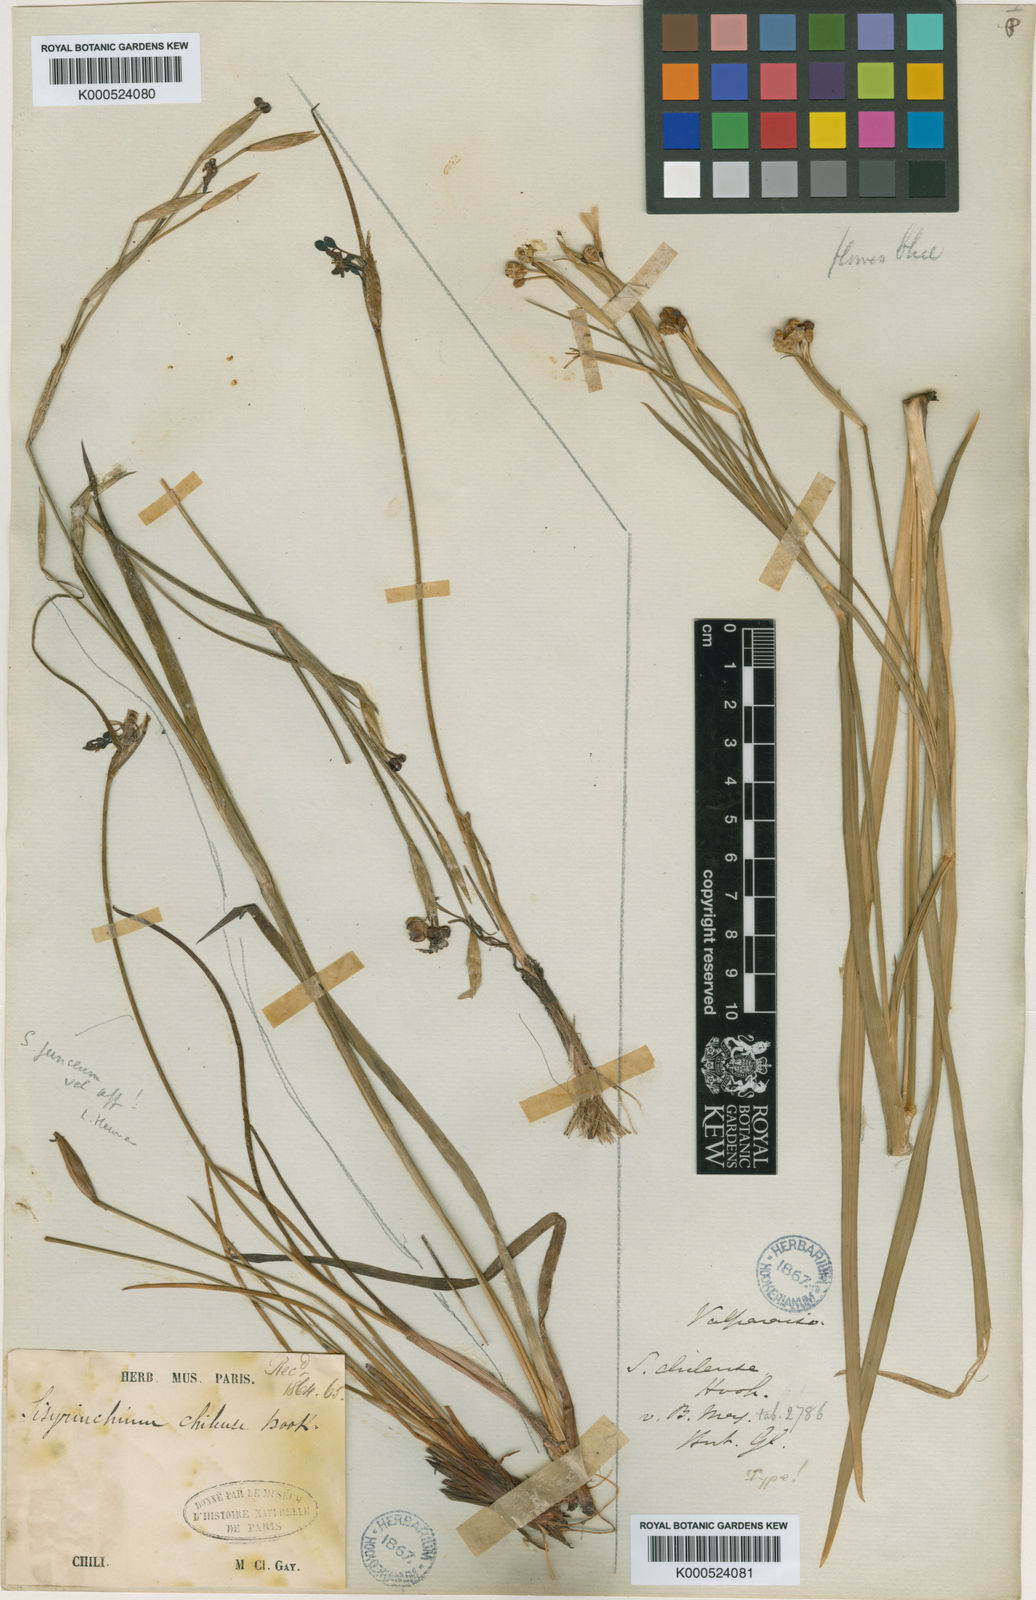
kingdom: Plantae
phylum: Tracheophyta
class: Liliopsida
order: Asparagales
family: Iridaceae
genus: Sisyrinchium
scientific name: Sisyrinchium chilense
